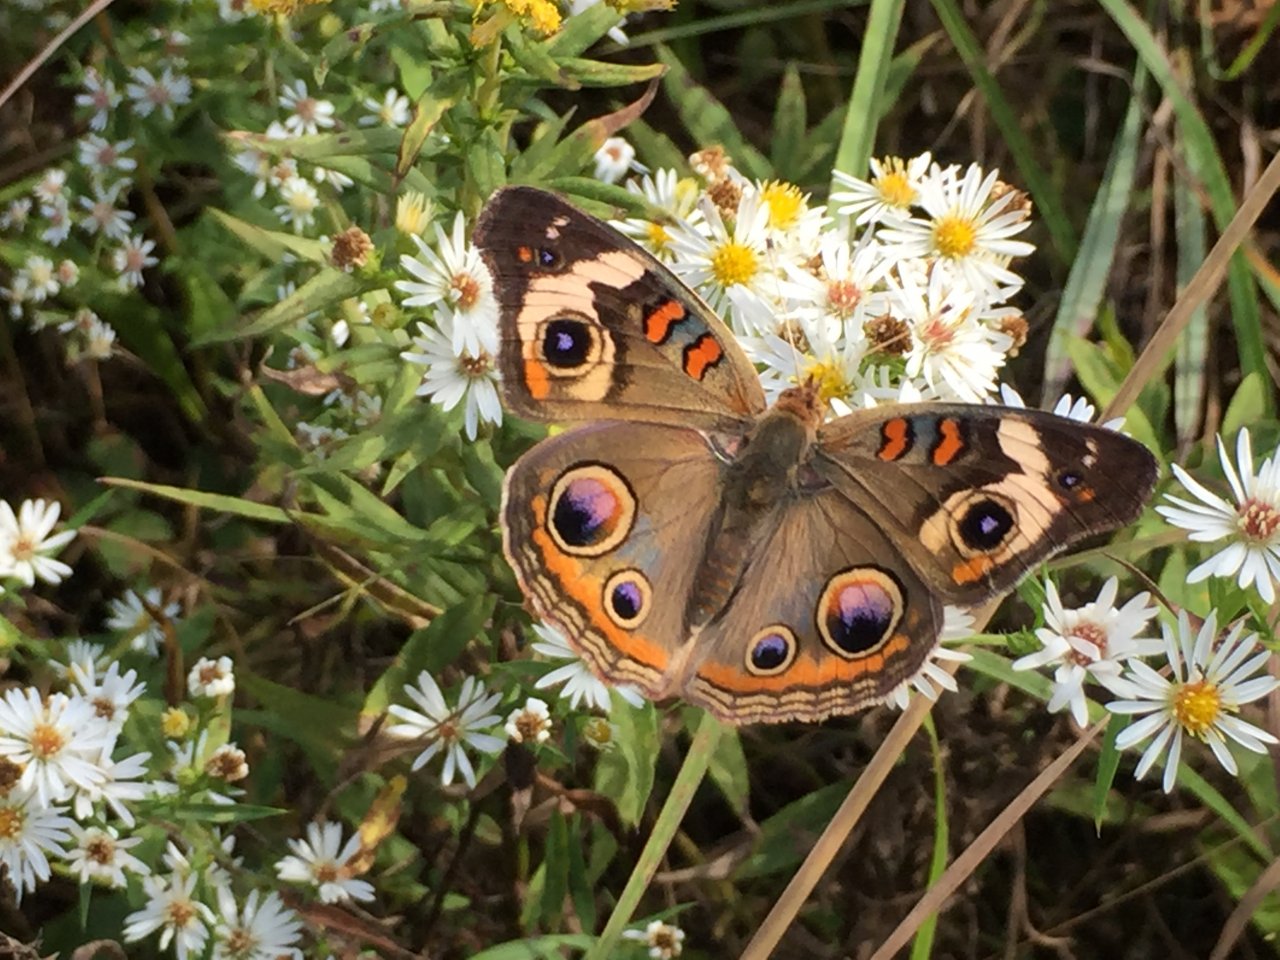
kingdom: Animalia
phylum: Arthropoda
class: Insecta
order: Lepidoptera
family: Nymphalidae
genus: Junonia
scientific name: Junonia coenia
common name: Common Buckeye
